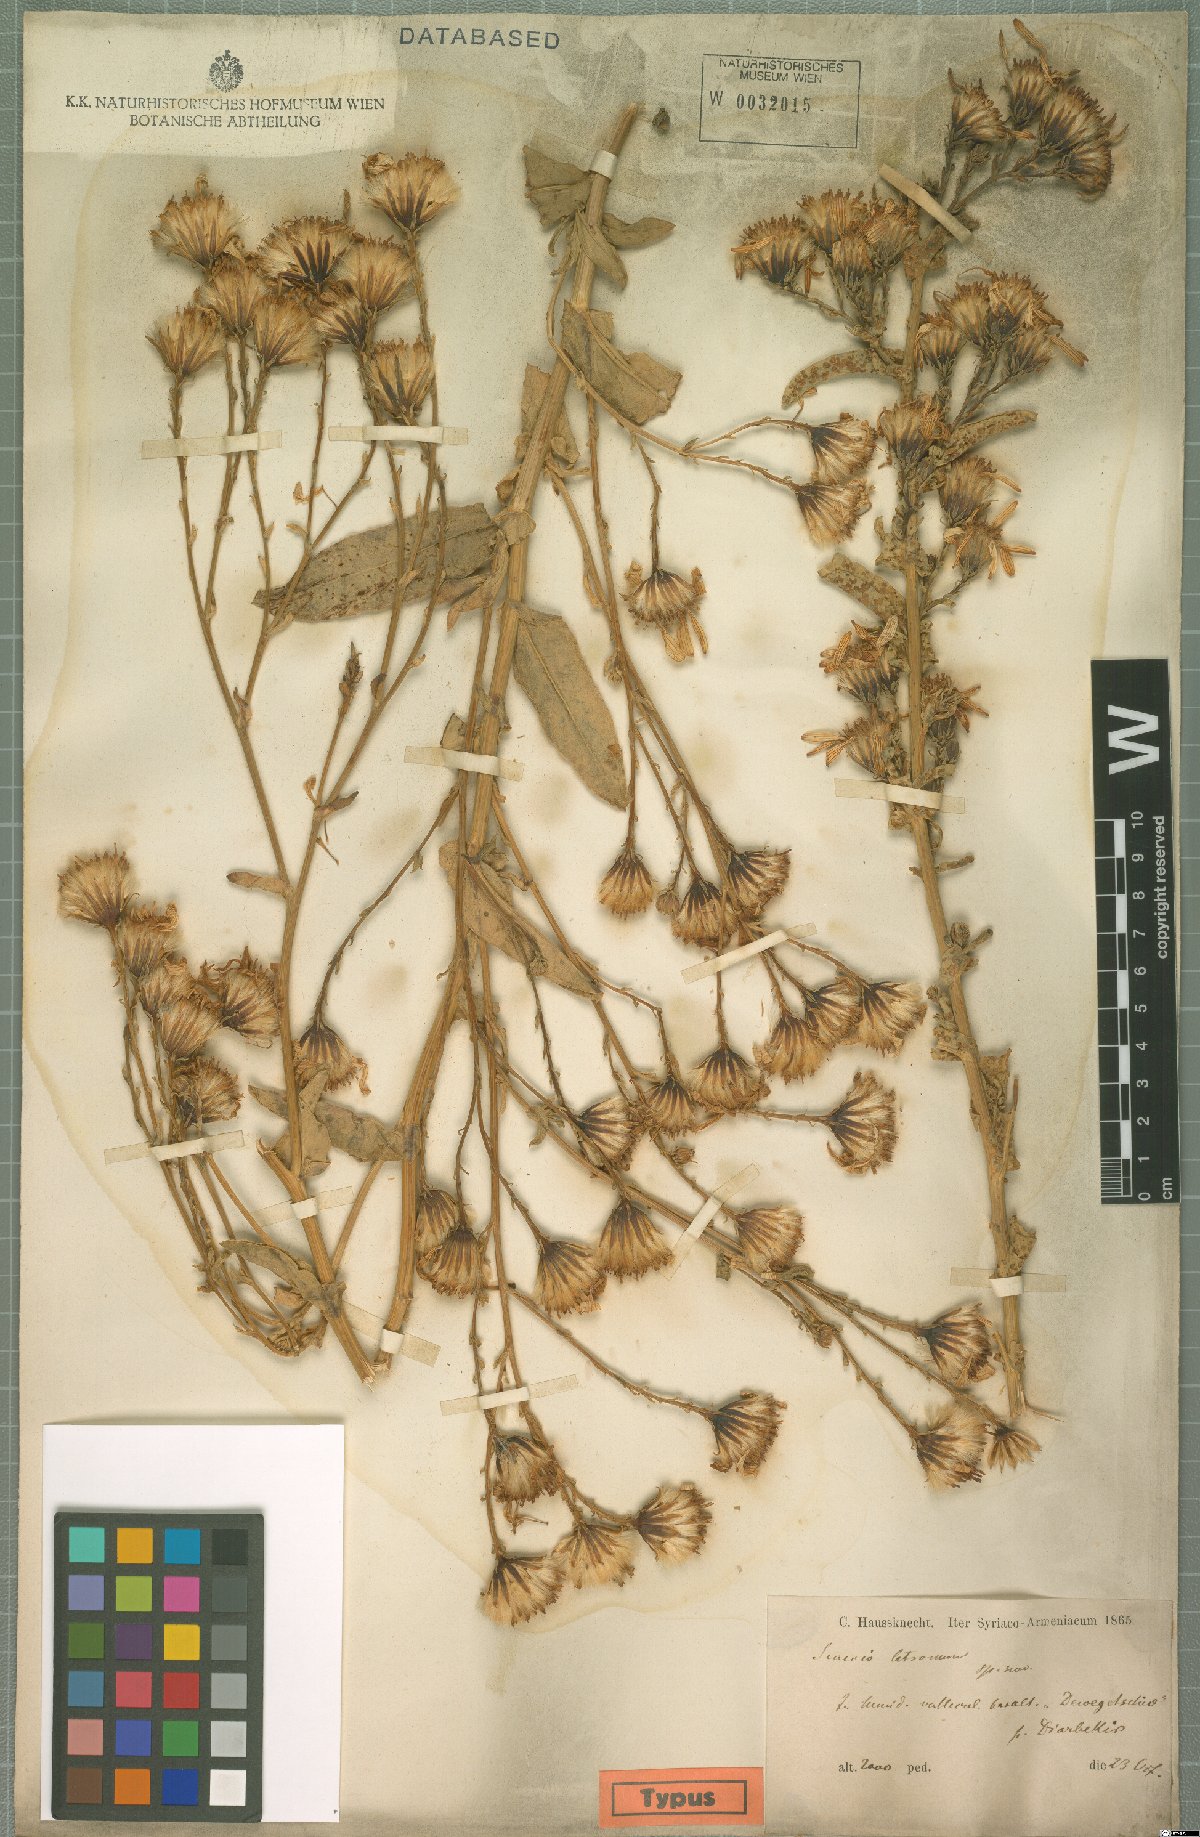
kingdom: Plantae
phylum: Tracheophyta
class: Magnoliopsida
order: Asterales
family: Asteraceae
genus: Jacobaea
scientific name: Jacobaea racemosa
